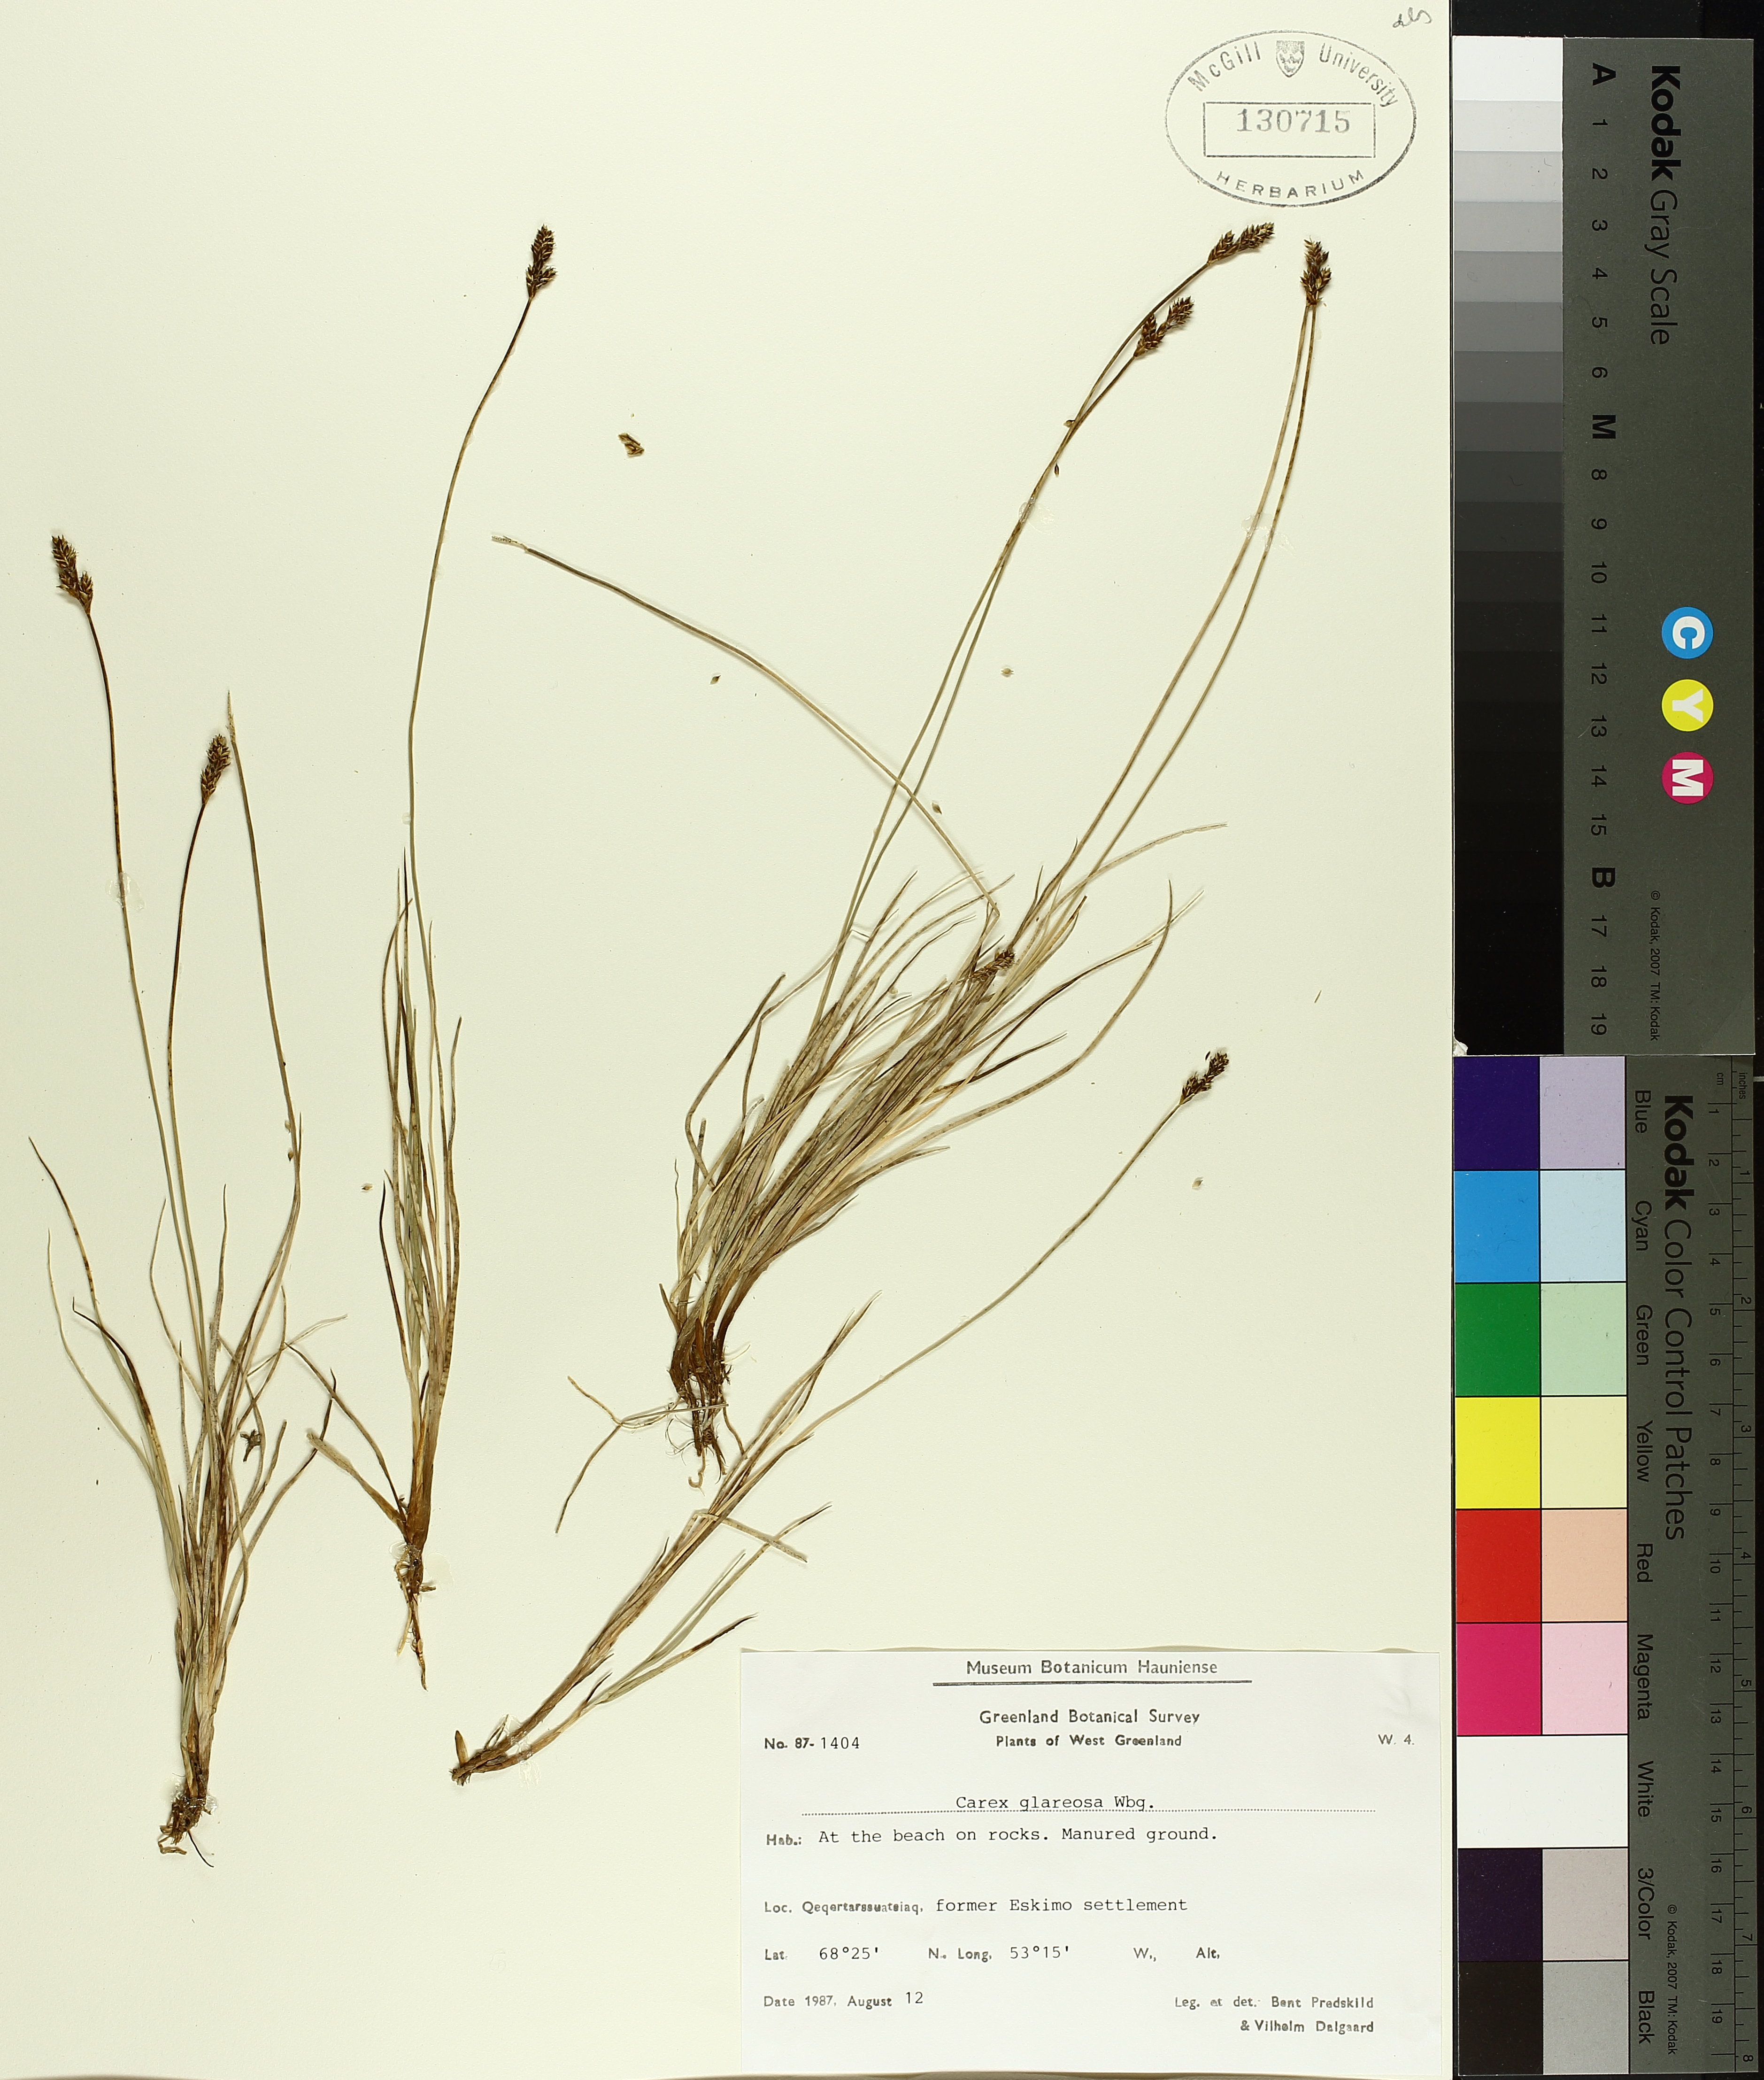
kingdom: Plantae
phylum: Tracheophyta
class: Liliopsida
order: Poales
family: Cyperaceae
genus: Carex
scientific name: Carex glareosa
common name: Clustered sedge
